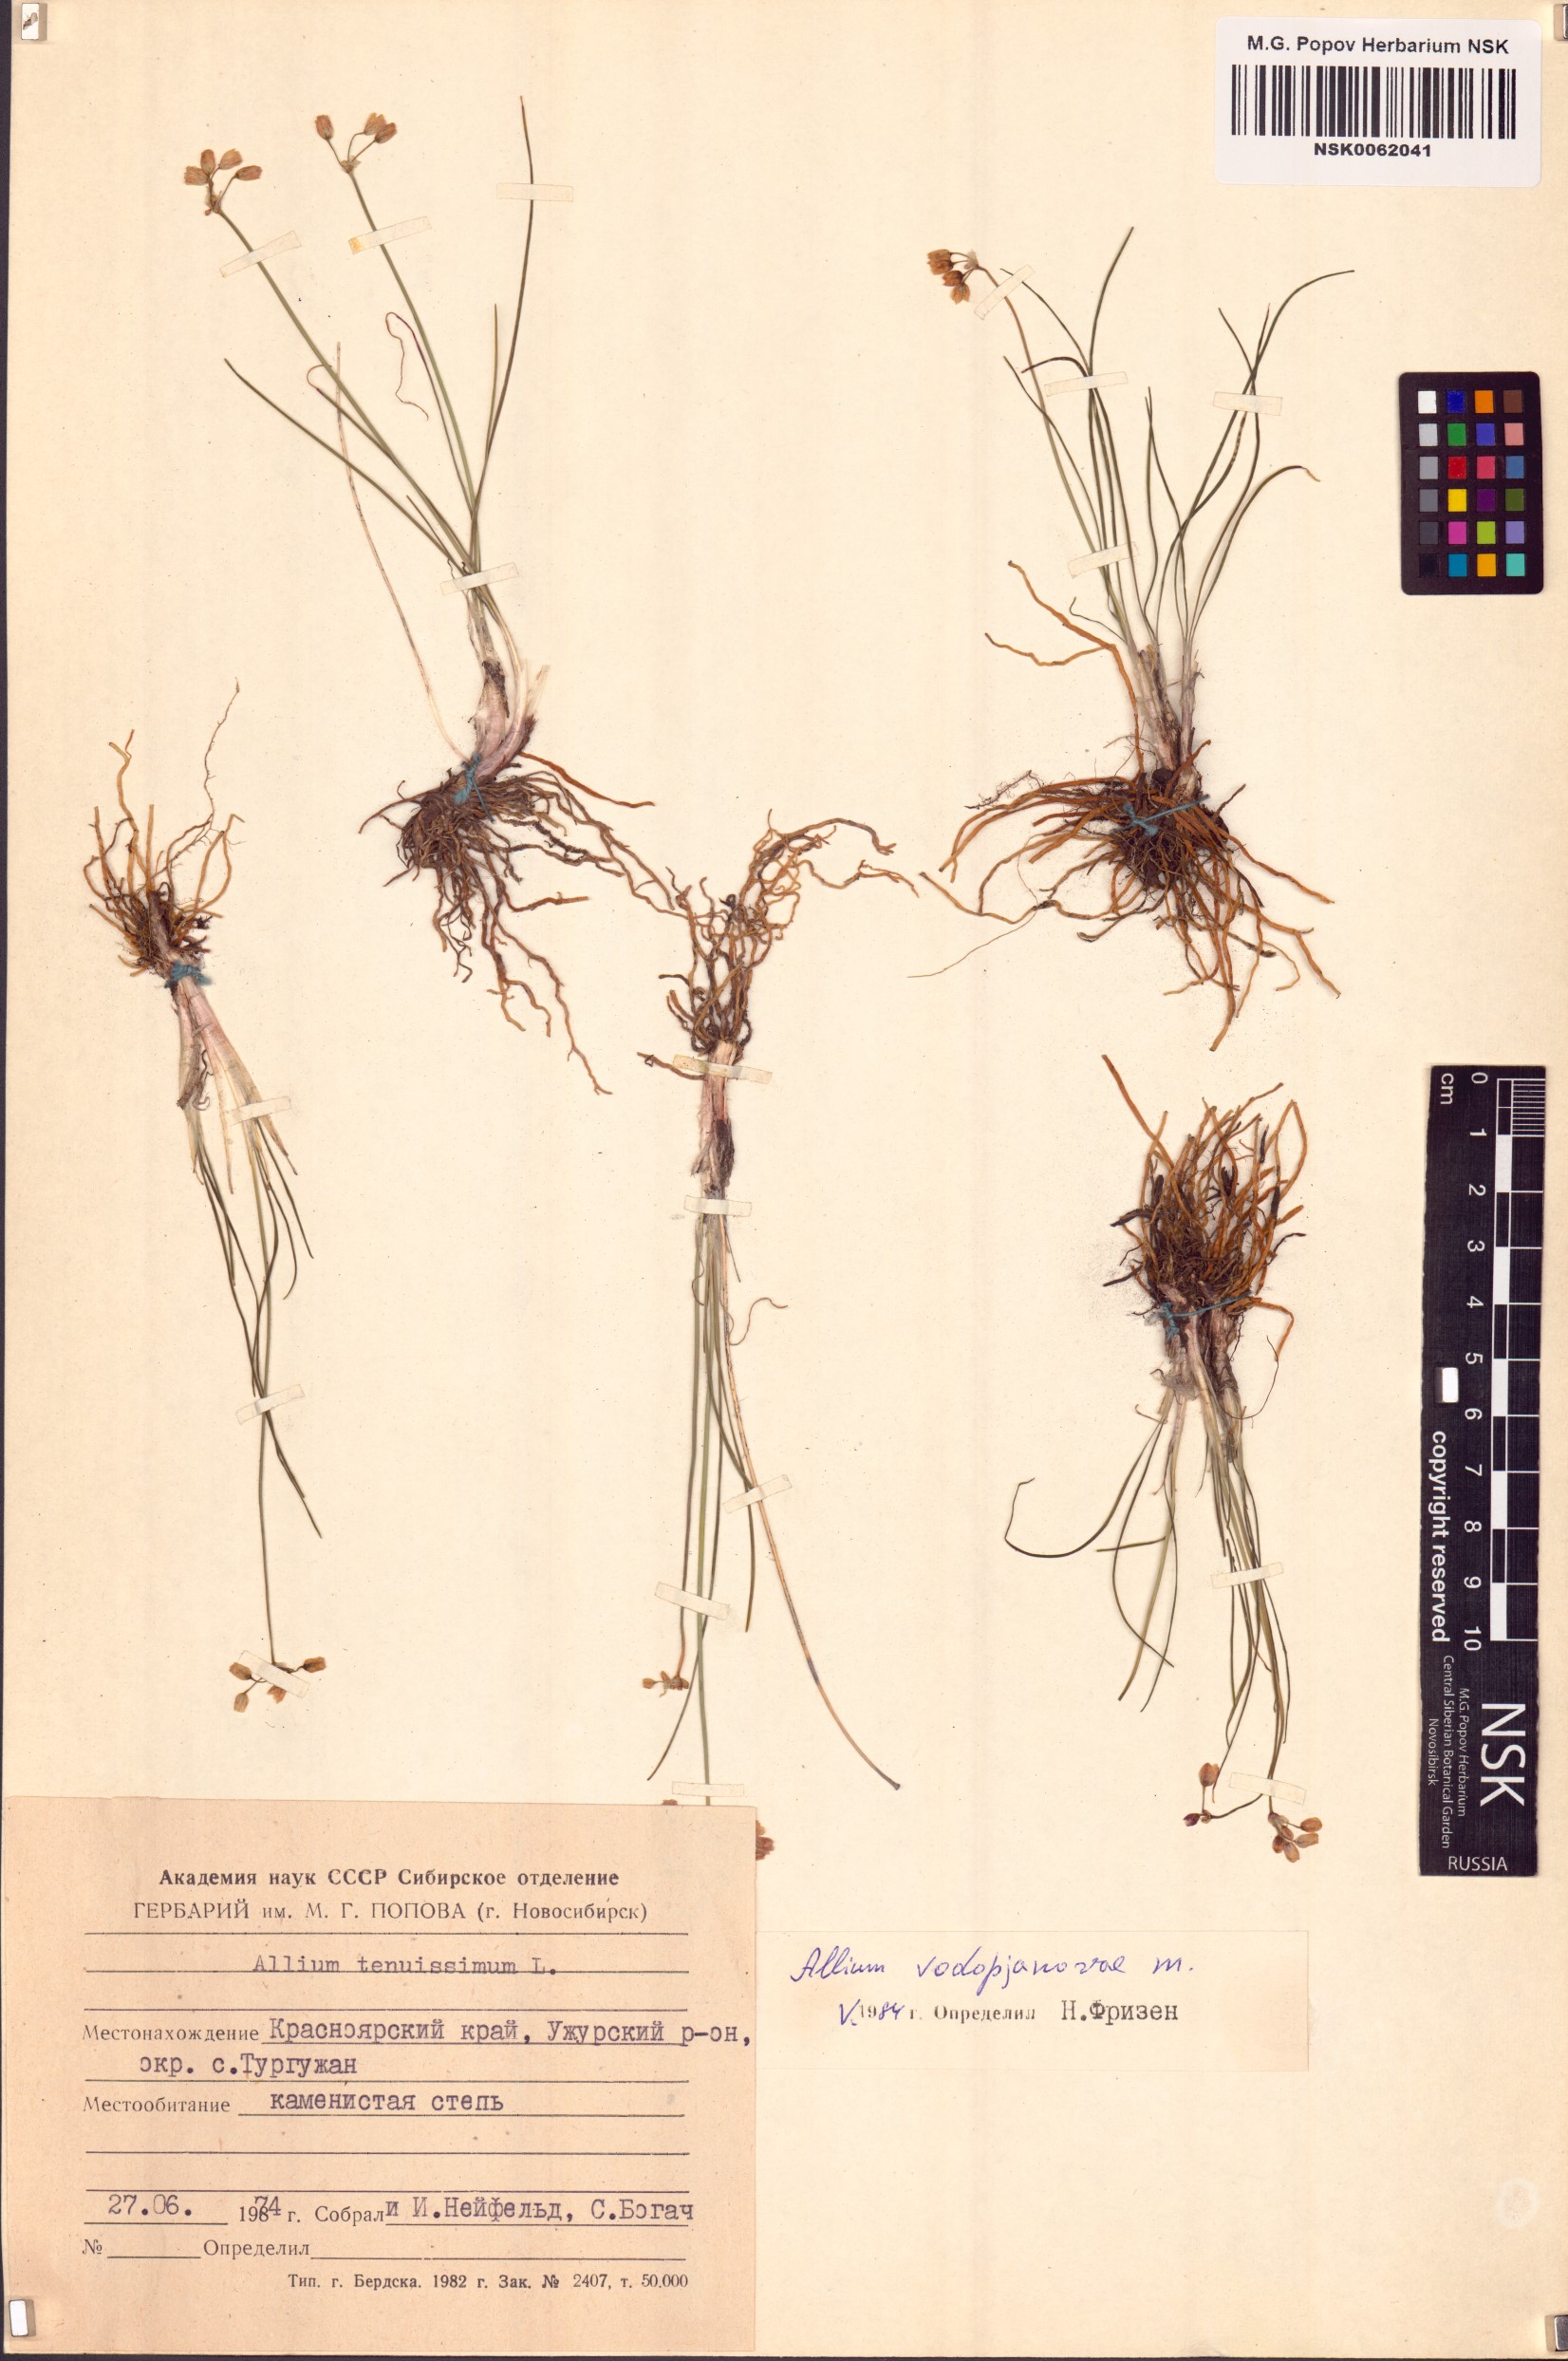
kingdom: Plantae
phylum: Tracheophyta
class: Liliopsida
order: Asparagales
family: Amaryllidaceae
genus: Allium
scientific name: Allium vodopjanovae
